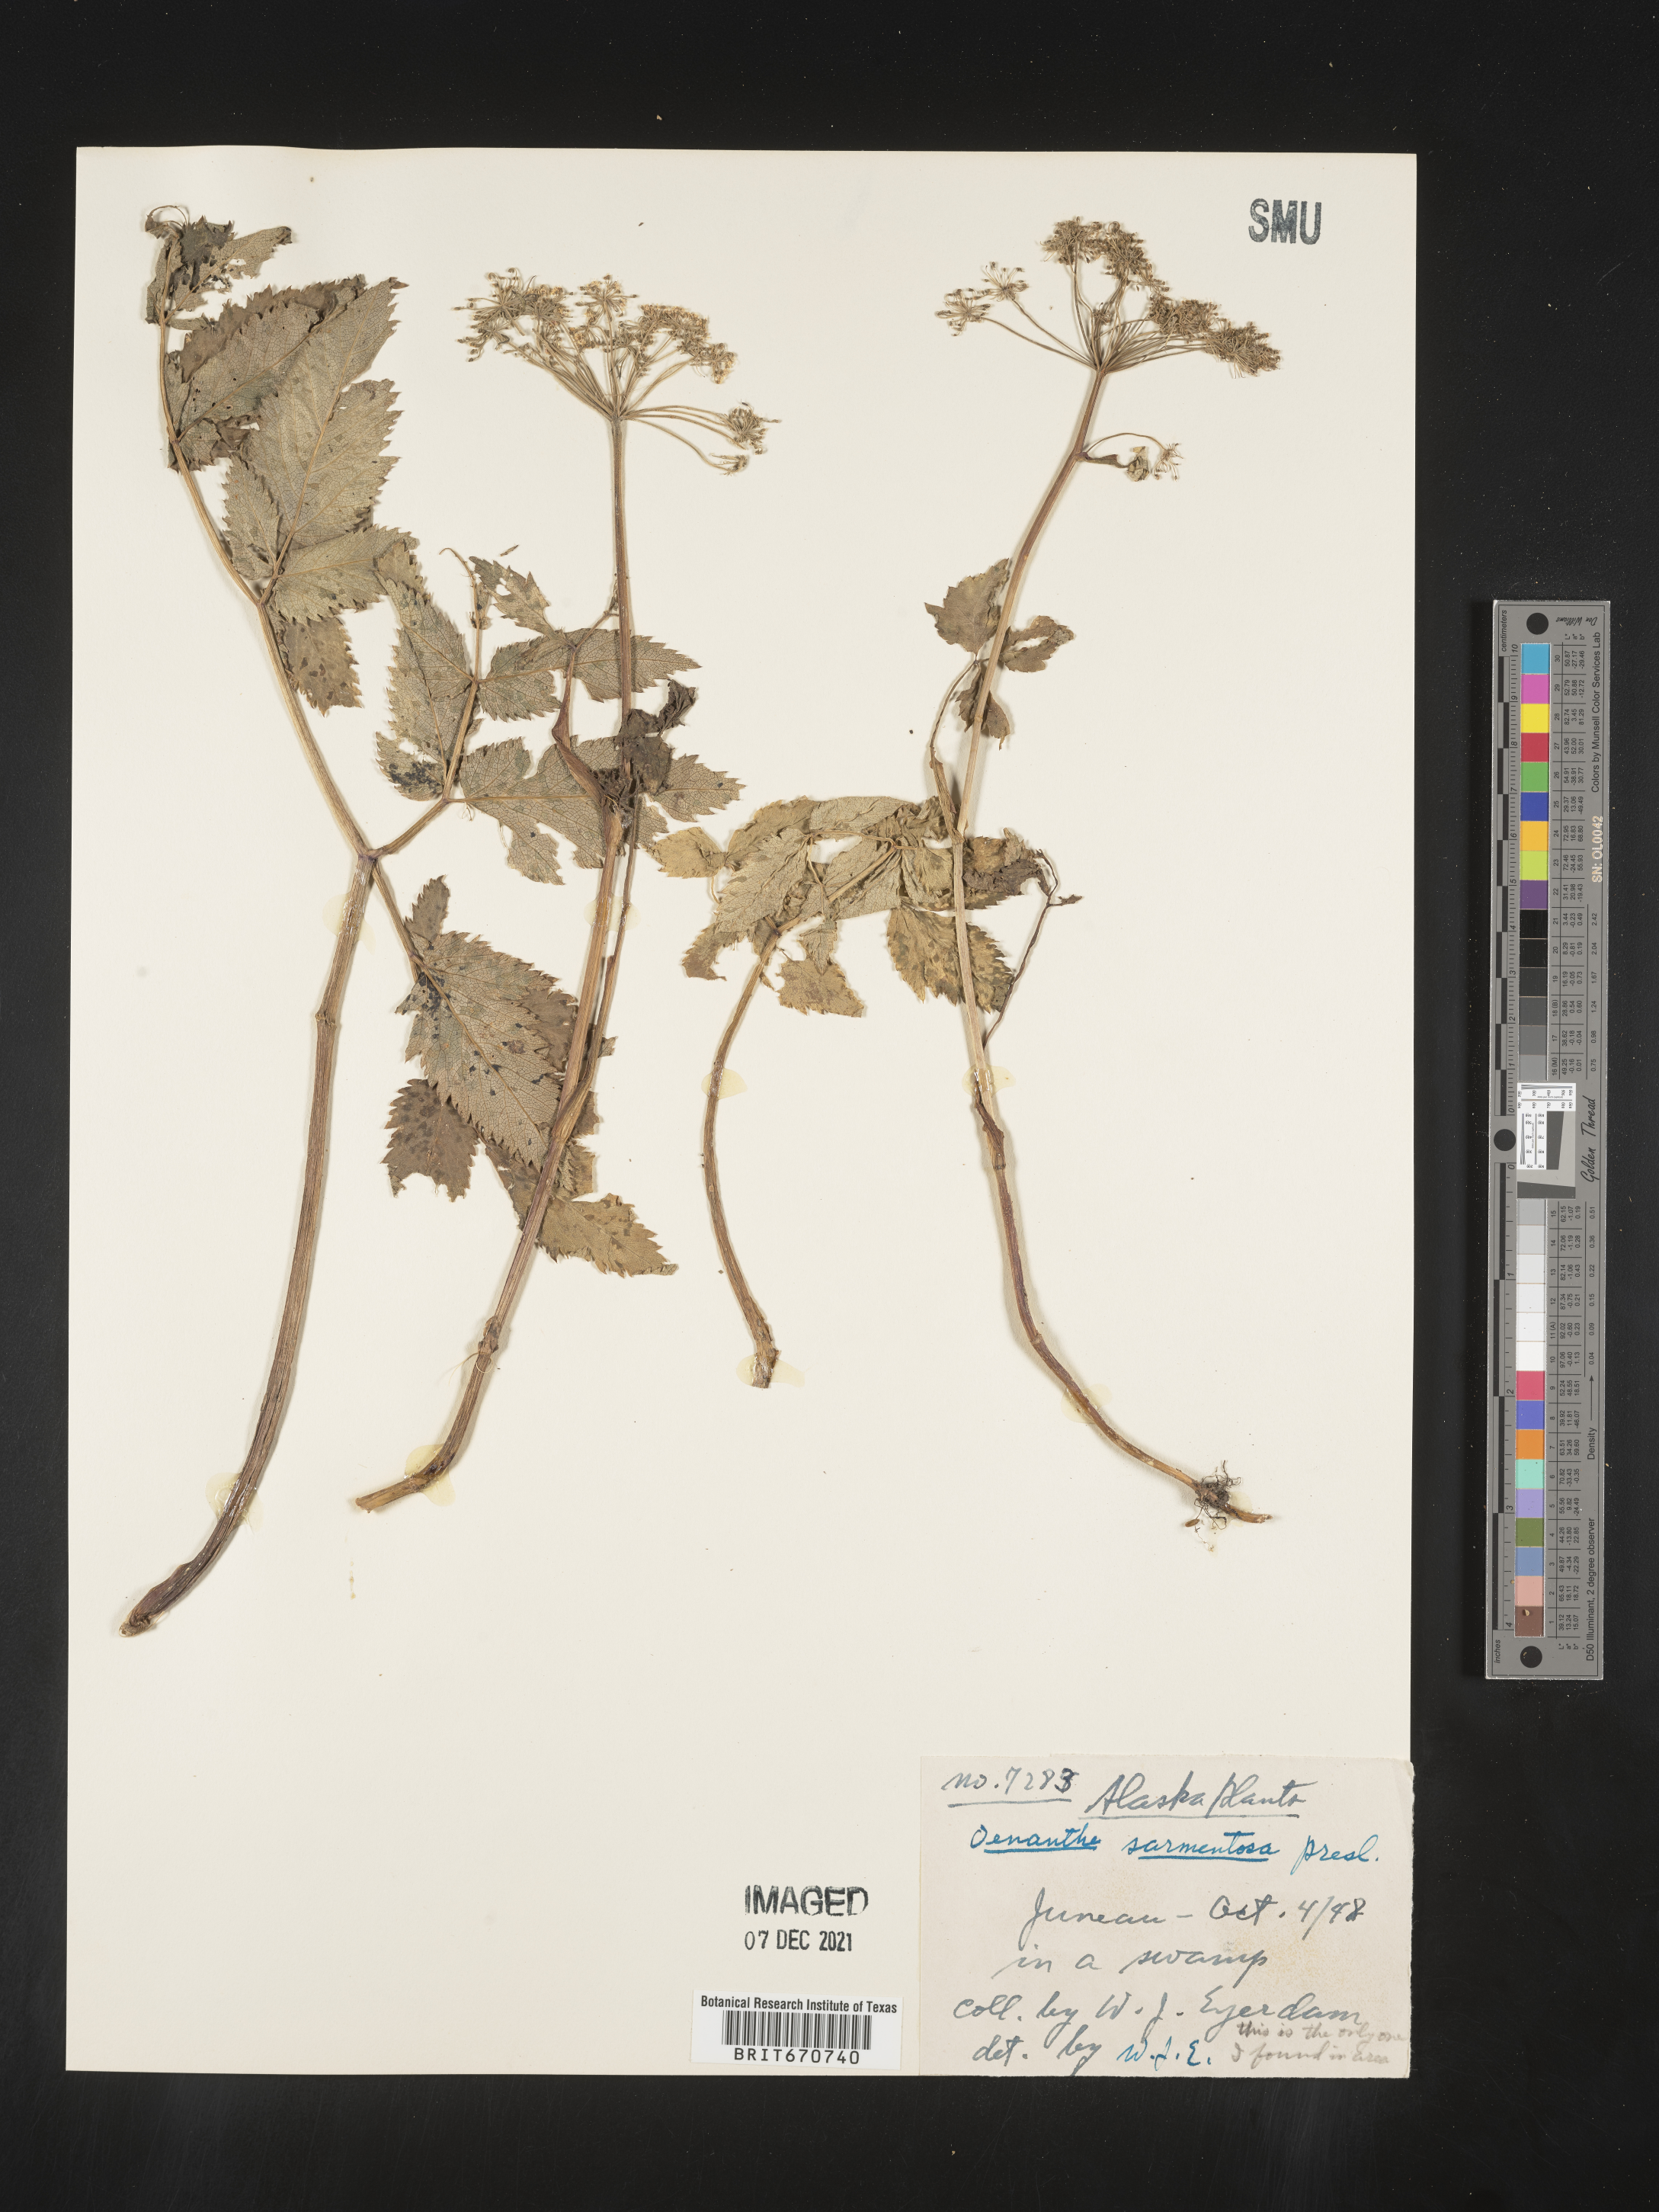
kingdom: Plantae
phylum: Tracheophyta
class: Magnoliopsida
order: Apiales
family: Apiaceae
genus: Oenanthe
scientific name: Oenanthe
